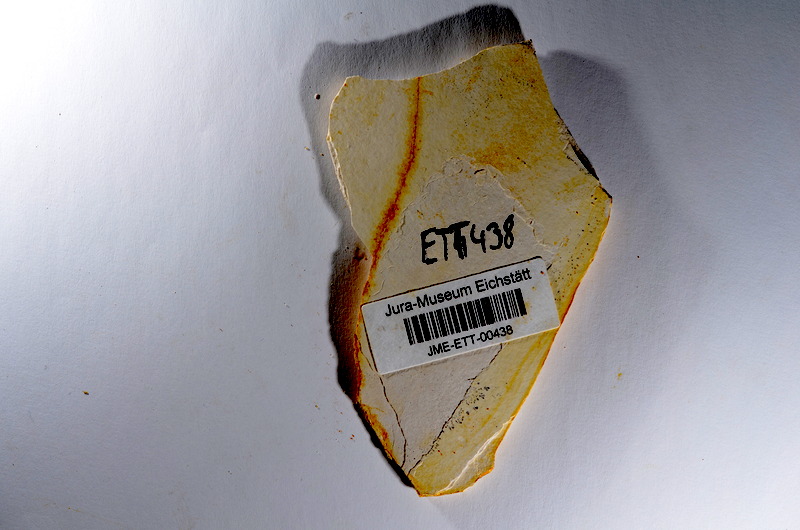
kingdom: Animalia
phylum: Chordata
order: Salmoniformes
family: Orthogonikleithridae
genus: Orthogonikleithrus
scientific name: Orthogonikleithrus hoelli
